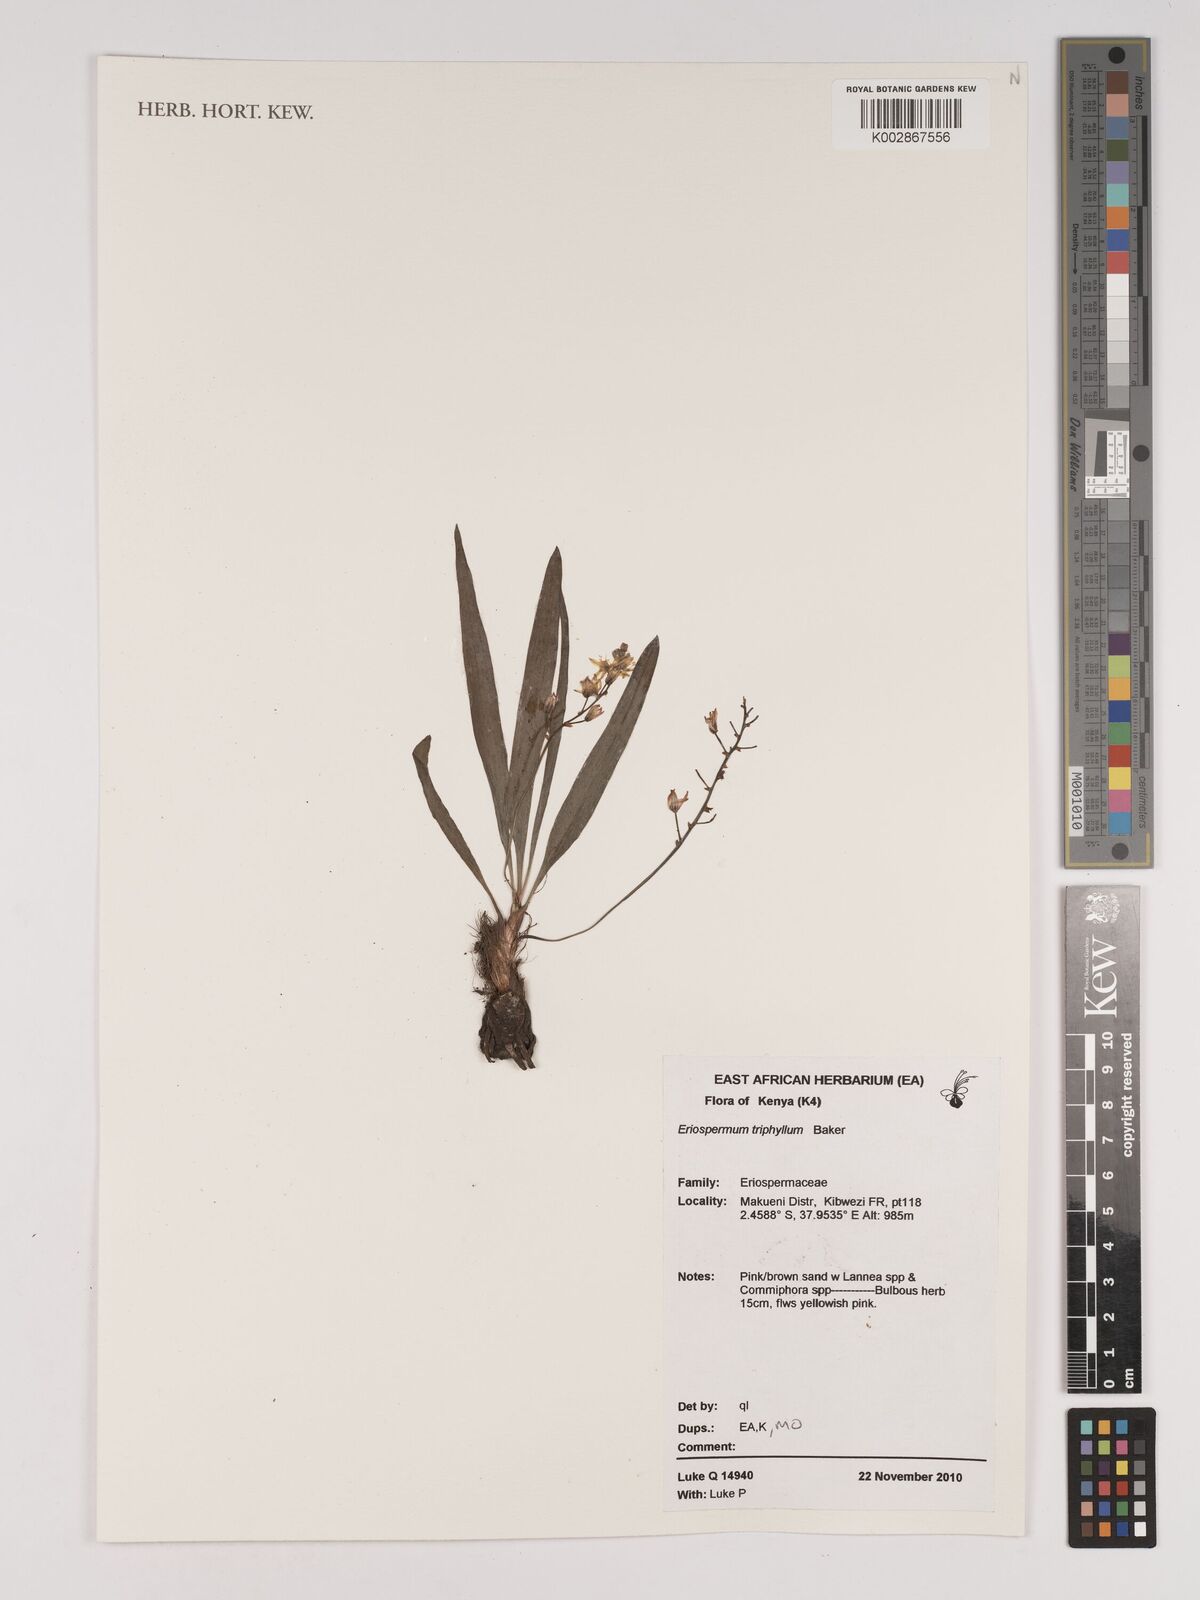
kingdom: Plantae
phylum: Tracheophyta
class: Liliopsida
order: Asparagales
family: Asparagaceae
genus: Eriospermum
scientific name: Eriospermum triphyllum
